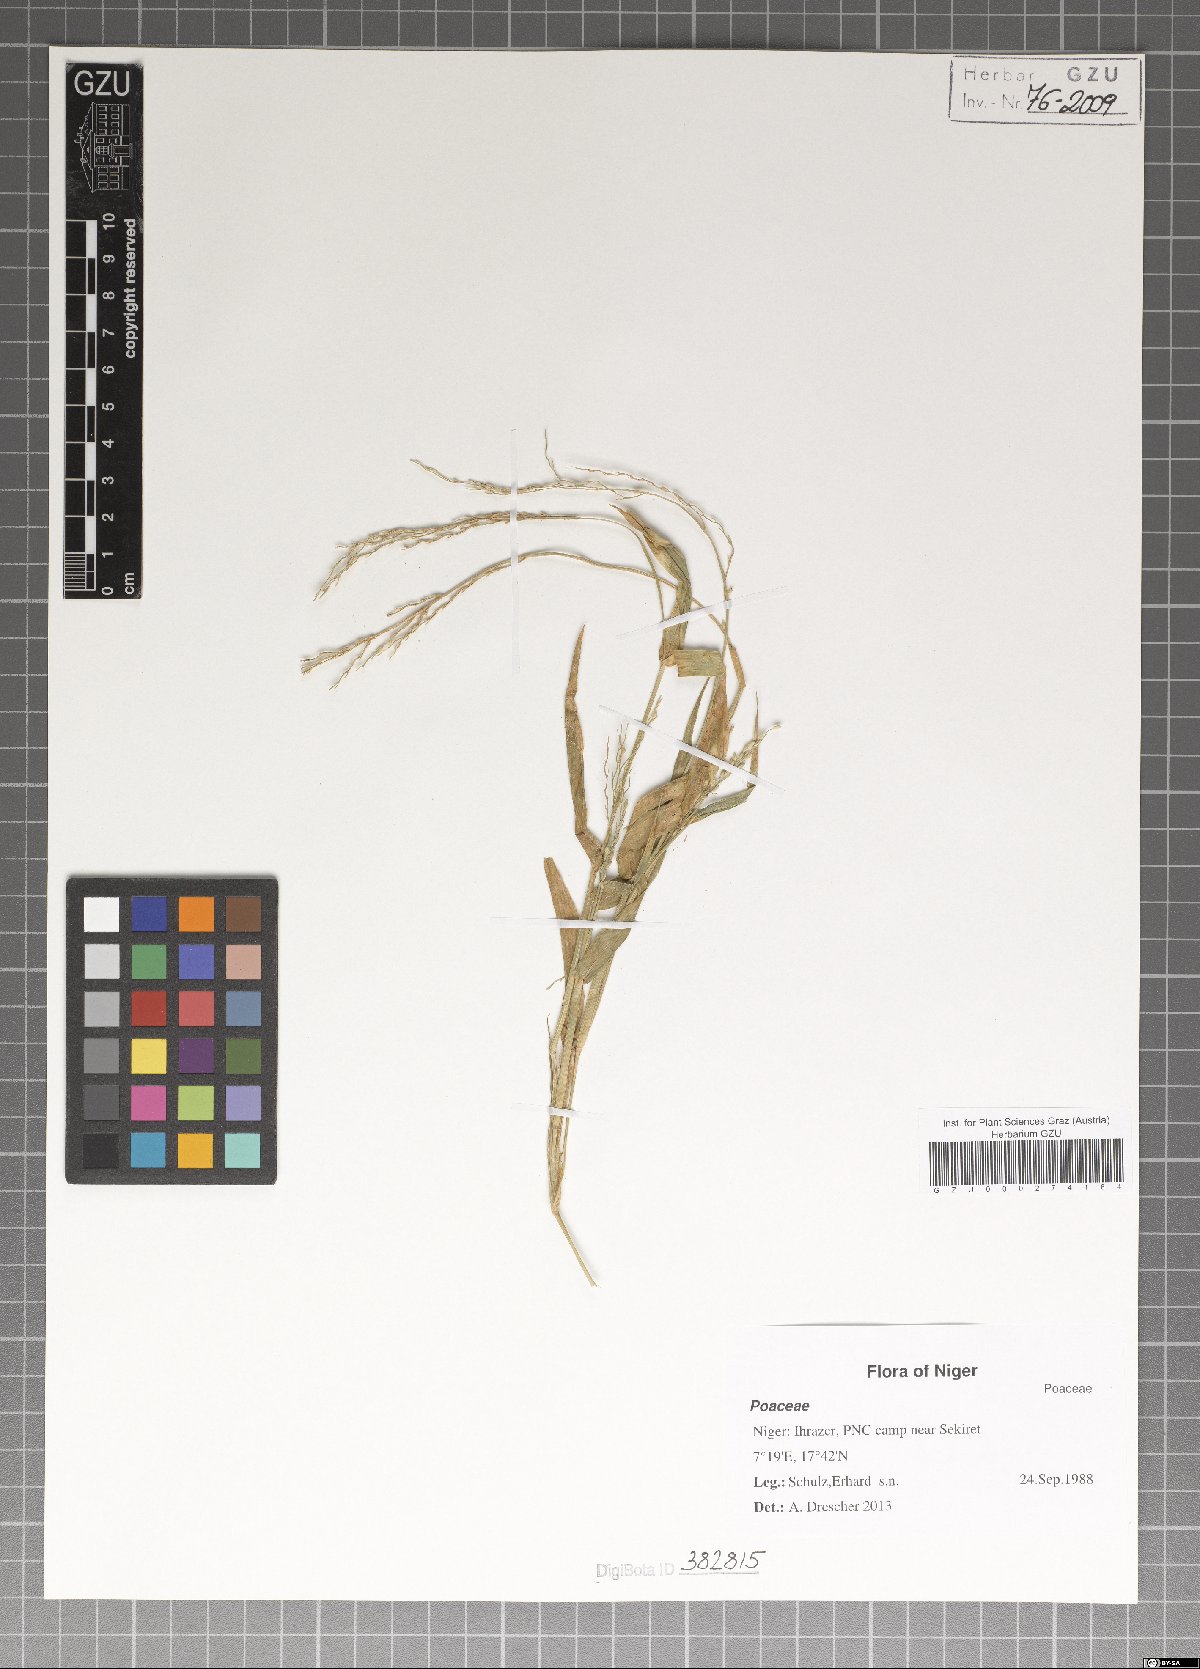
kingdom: Plantae
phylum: Tracheophyta
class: Liliopsida
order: Poales
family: Poaceae
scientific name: Poaceae
